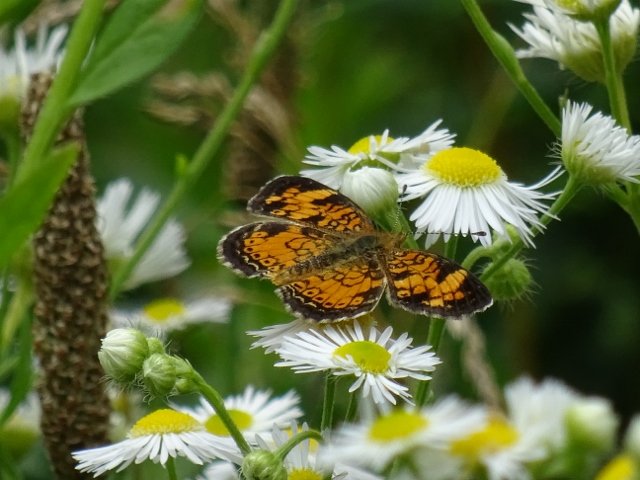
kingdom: Animalia
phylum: Arthropoda
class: Insecta
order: Lepidoptera
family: Nymphalidae
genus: Phyciodes
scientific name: Phyciodes tharos
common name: Pearl Crescent
